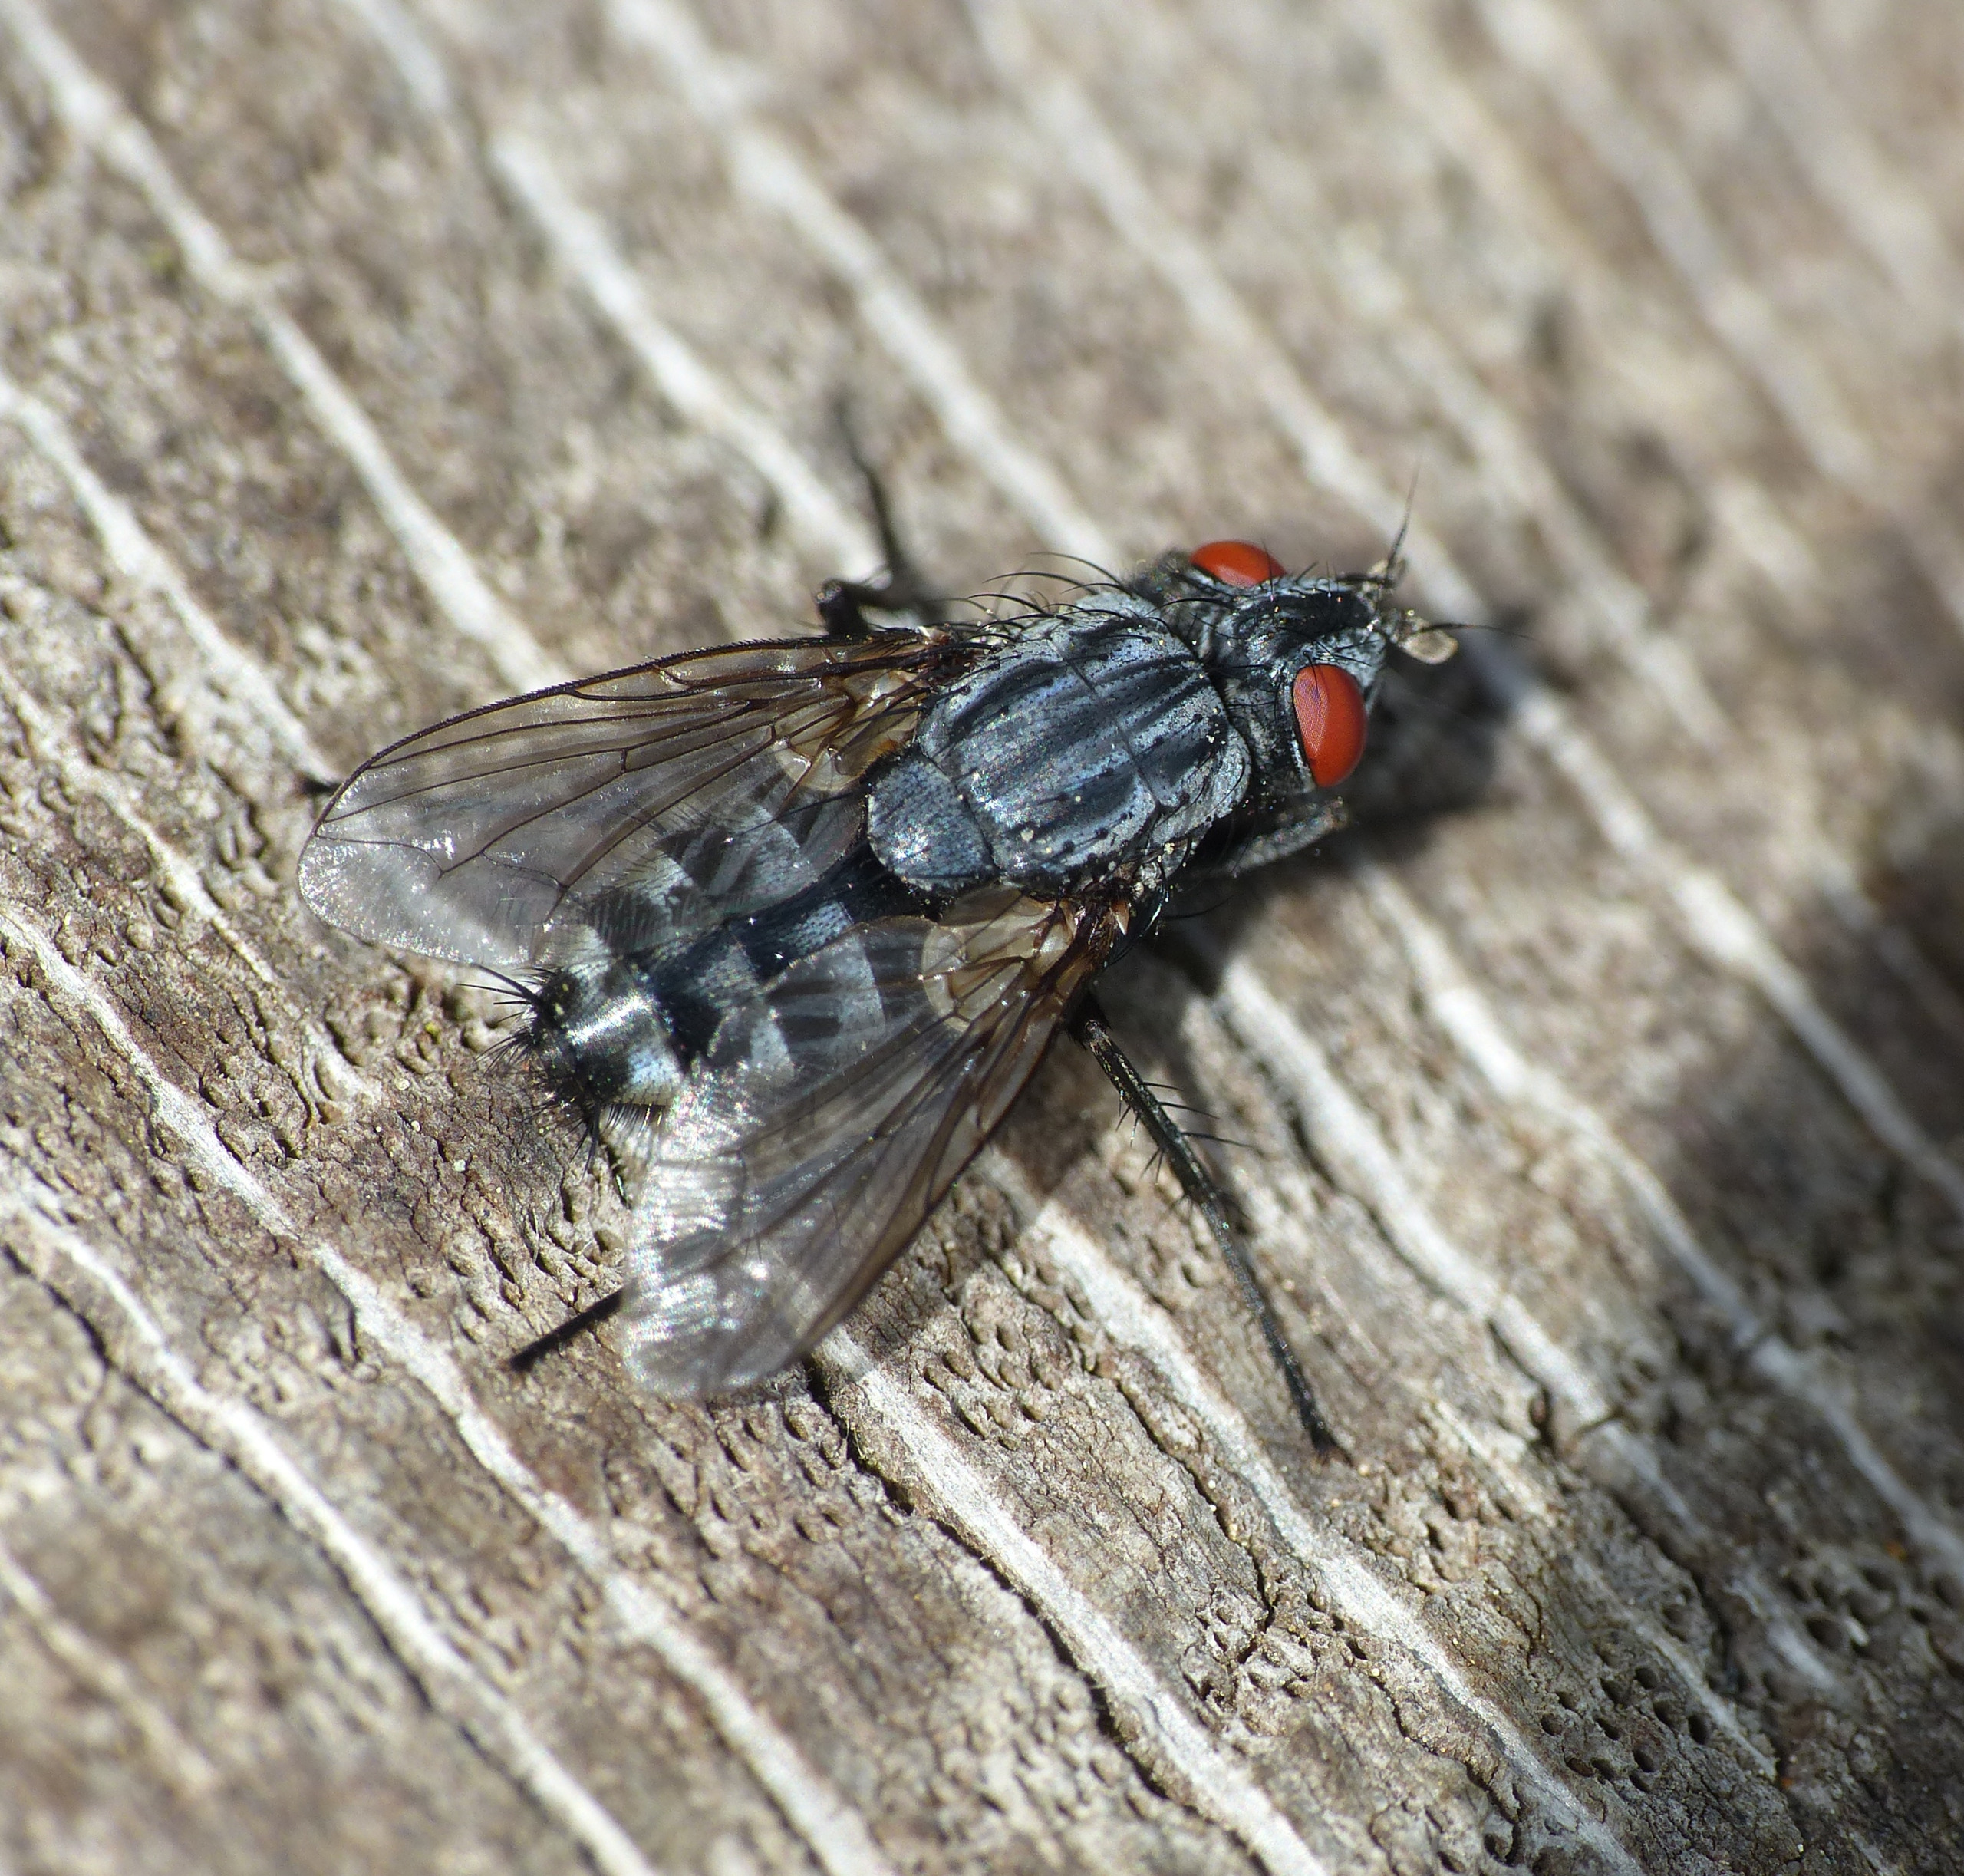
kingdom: Animalia
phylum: Arthropoda
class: Insecta
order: Diptera
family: Sarcophagidae
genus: Brachicoma
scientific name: Brachicoma devia
